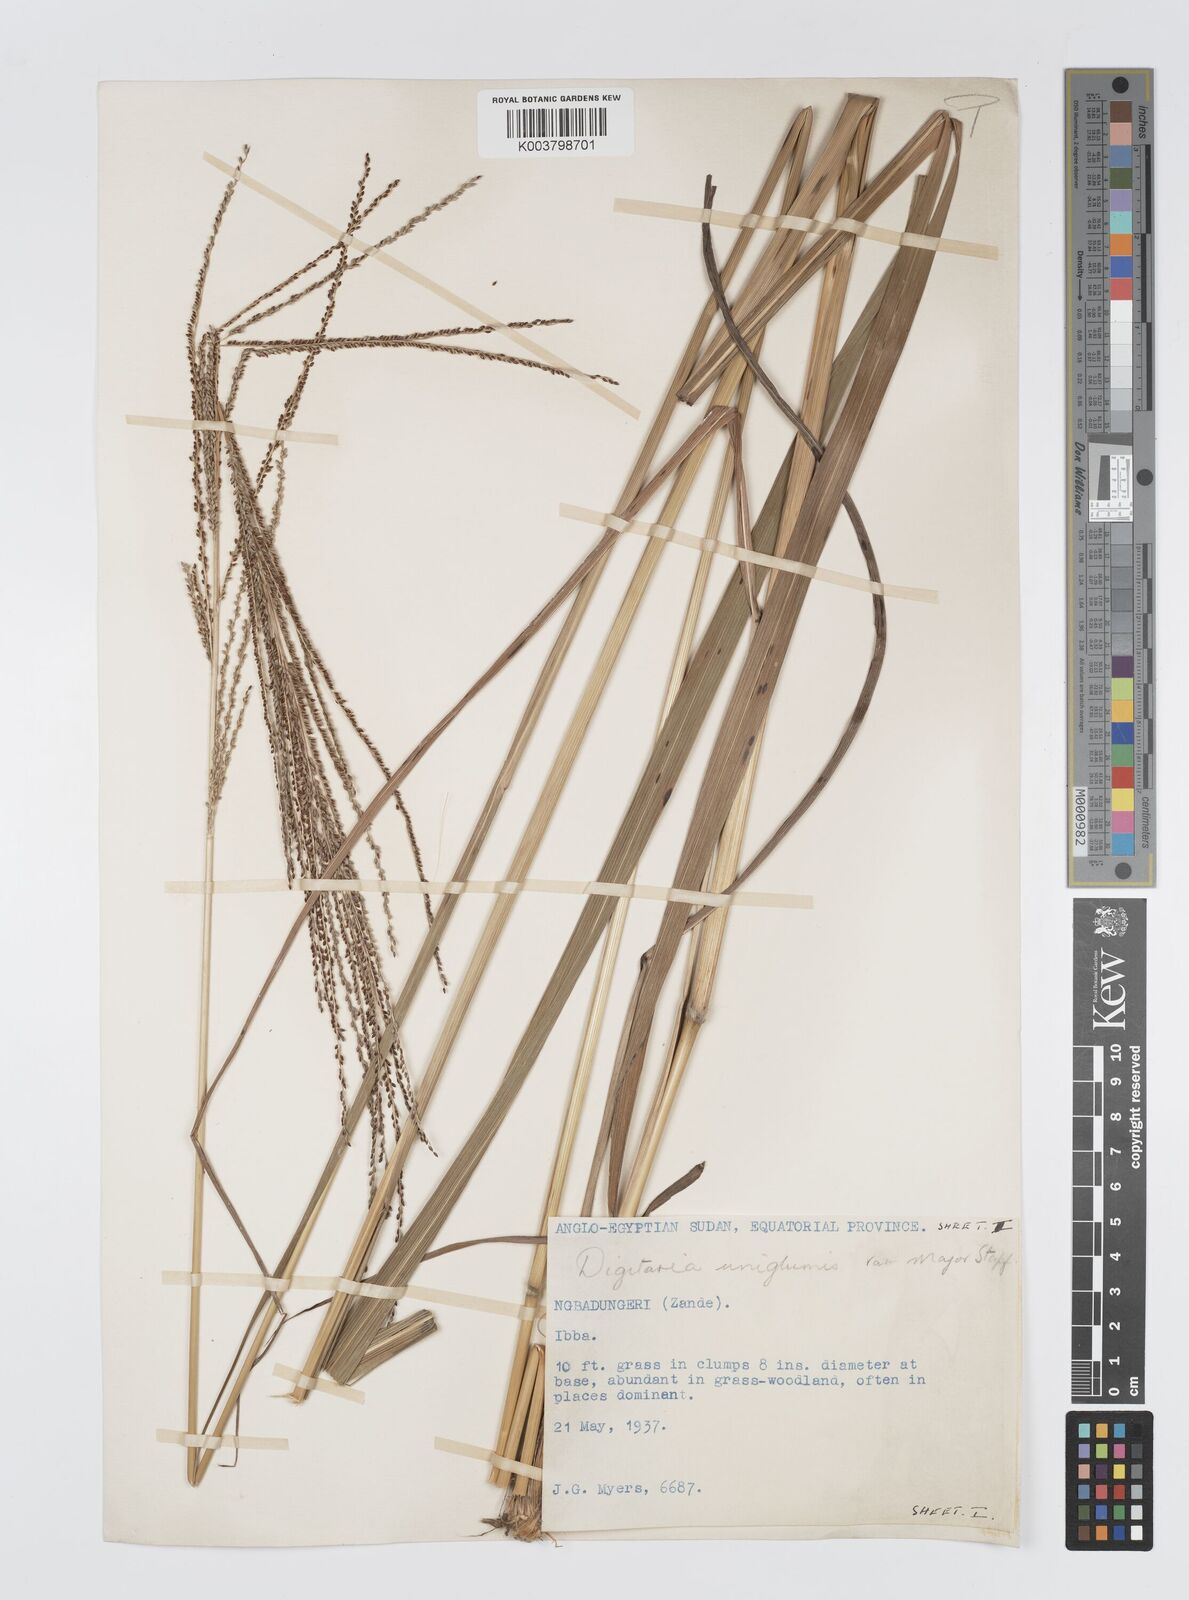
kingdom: Plantae
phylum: Tracheophyta
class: Liliopsida
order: Poales
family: Poaceae
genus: Digitaria
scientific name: Digitaria diagonalis
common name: Brown-seed finger grass
